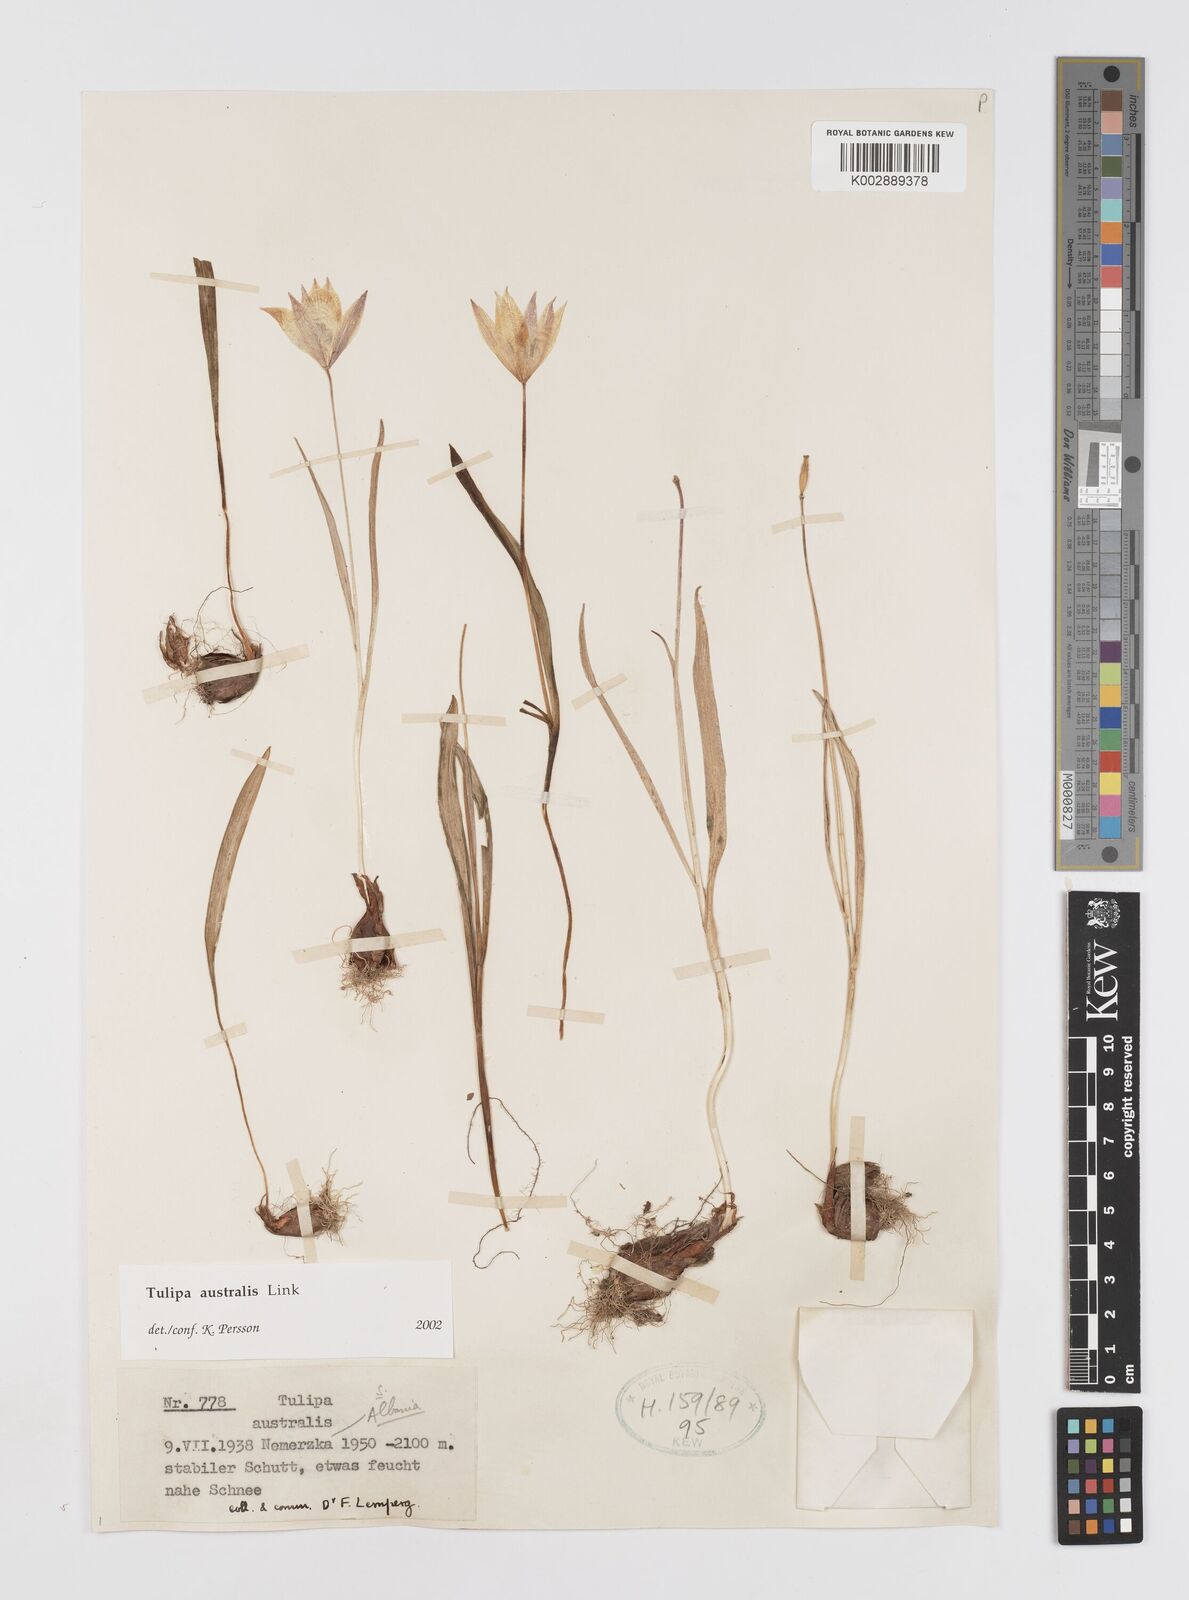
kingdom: Plantae
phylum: Tracheophyta
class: Liliopsida
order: Liliales
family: Liliaceae
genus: Tulipa
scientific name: Tulipa sylvestris
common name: Wild tulip
